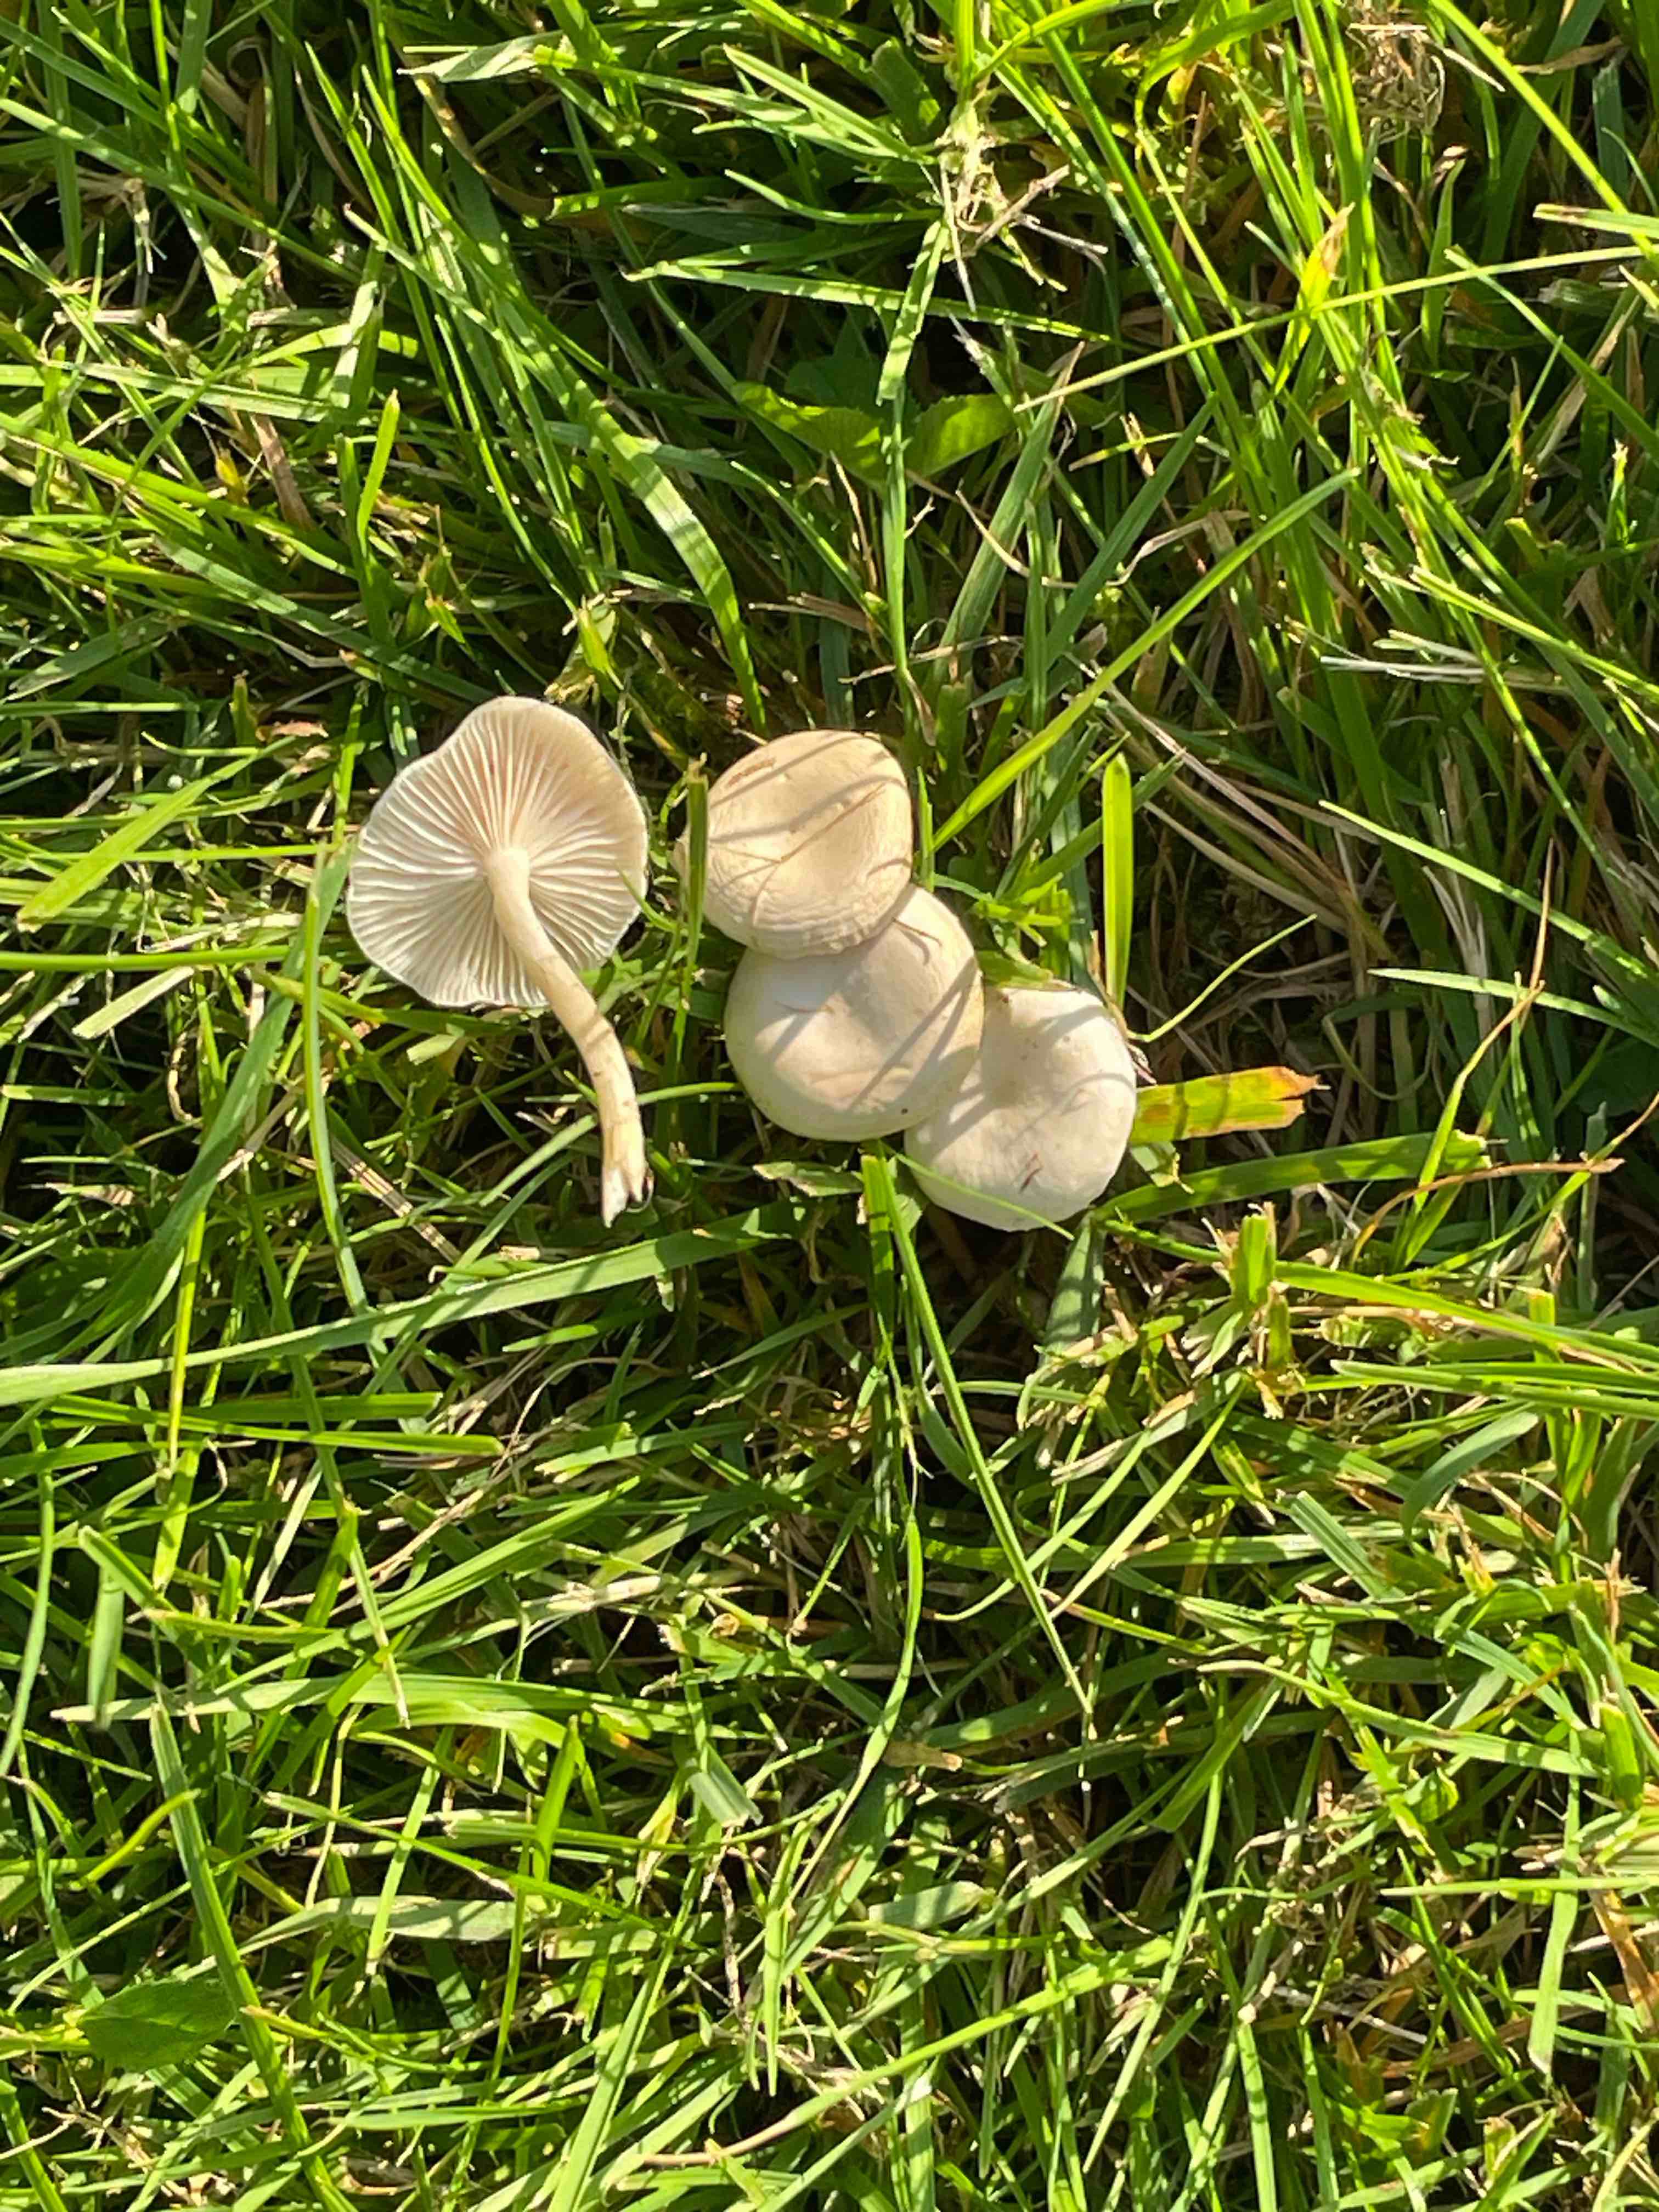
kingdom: Fungi
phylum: Basidiomycota
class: Agaricomycetes
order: Agaricales
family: Tricholomataceae
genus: Clitocybe
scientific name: Clitocybe agrestis
